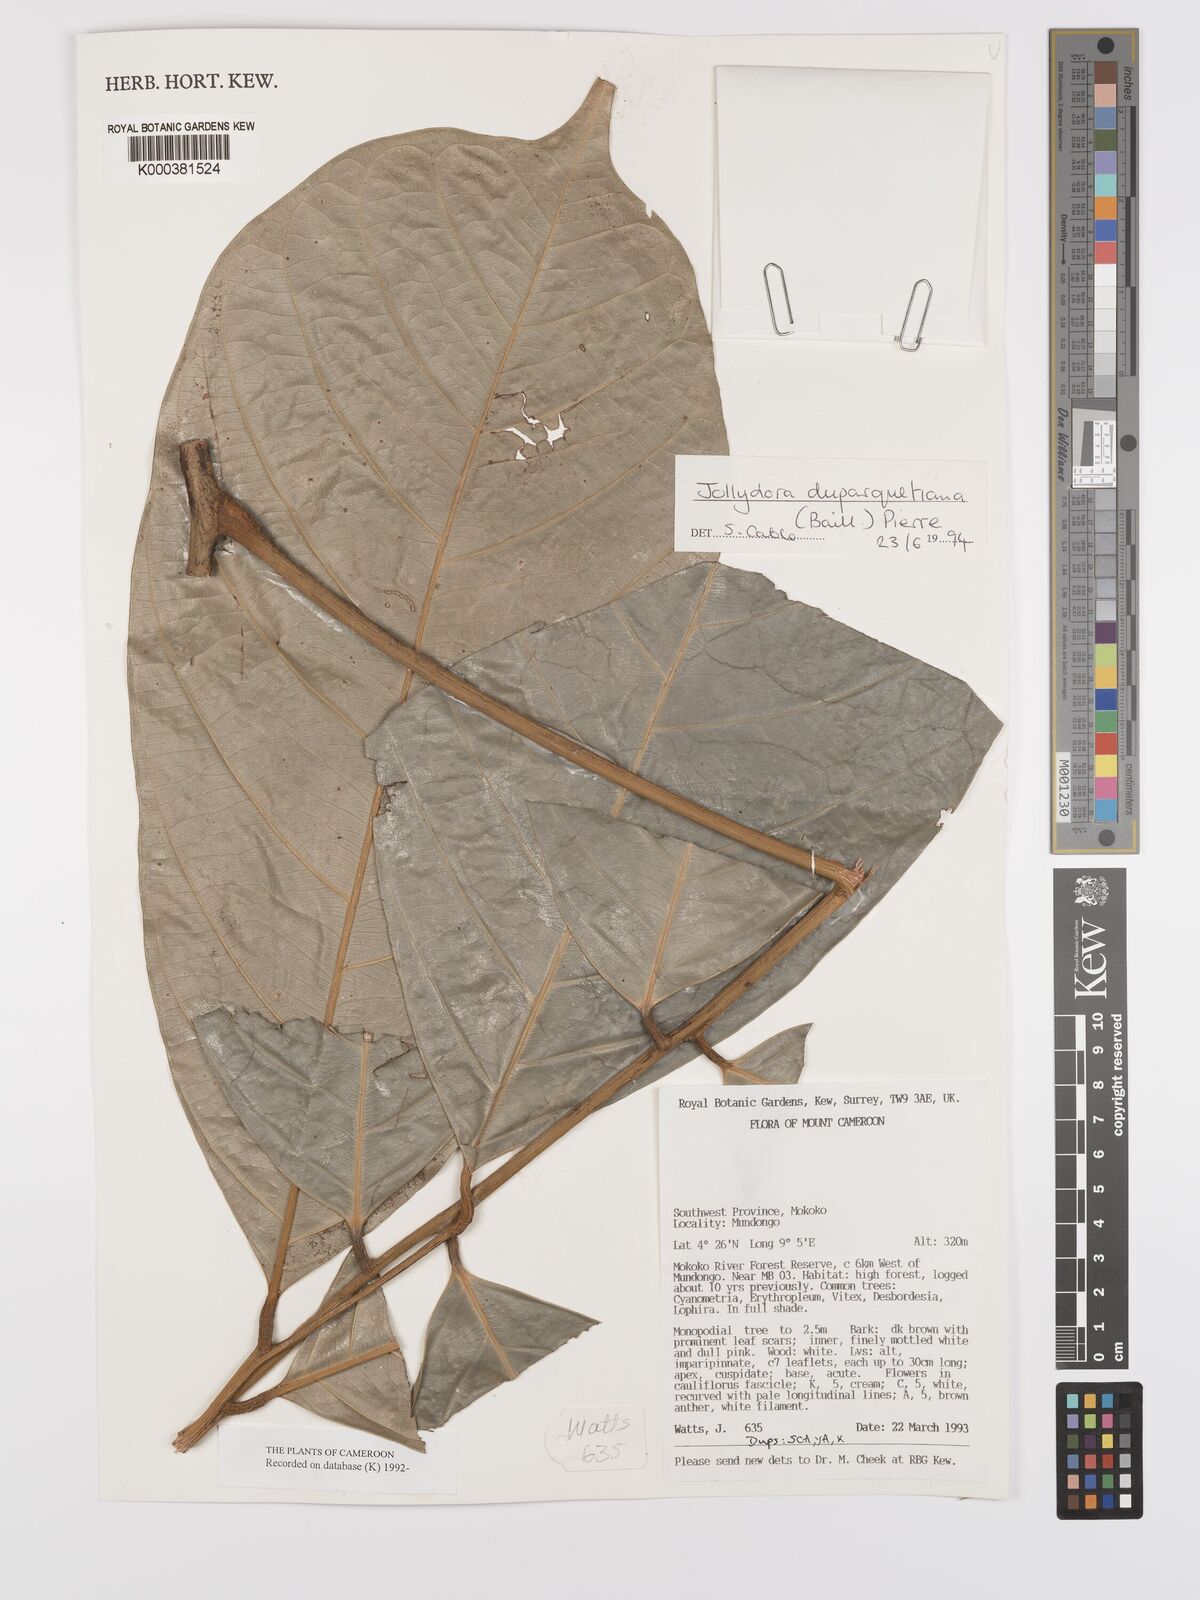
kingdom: Plantae
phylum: Tracheophyta
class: Magnoliopsida
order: Oxalidales
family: Connaraceae
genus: Jollydora
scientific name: Jollydora duparquetiana
